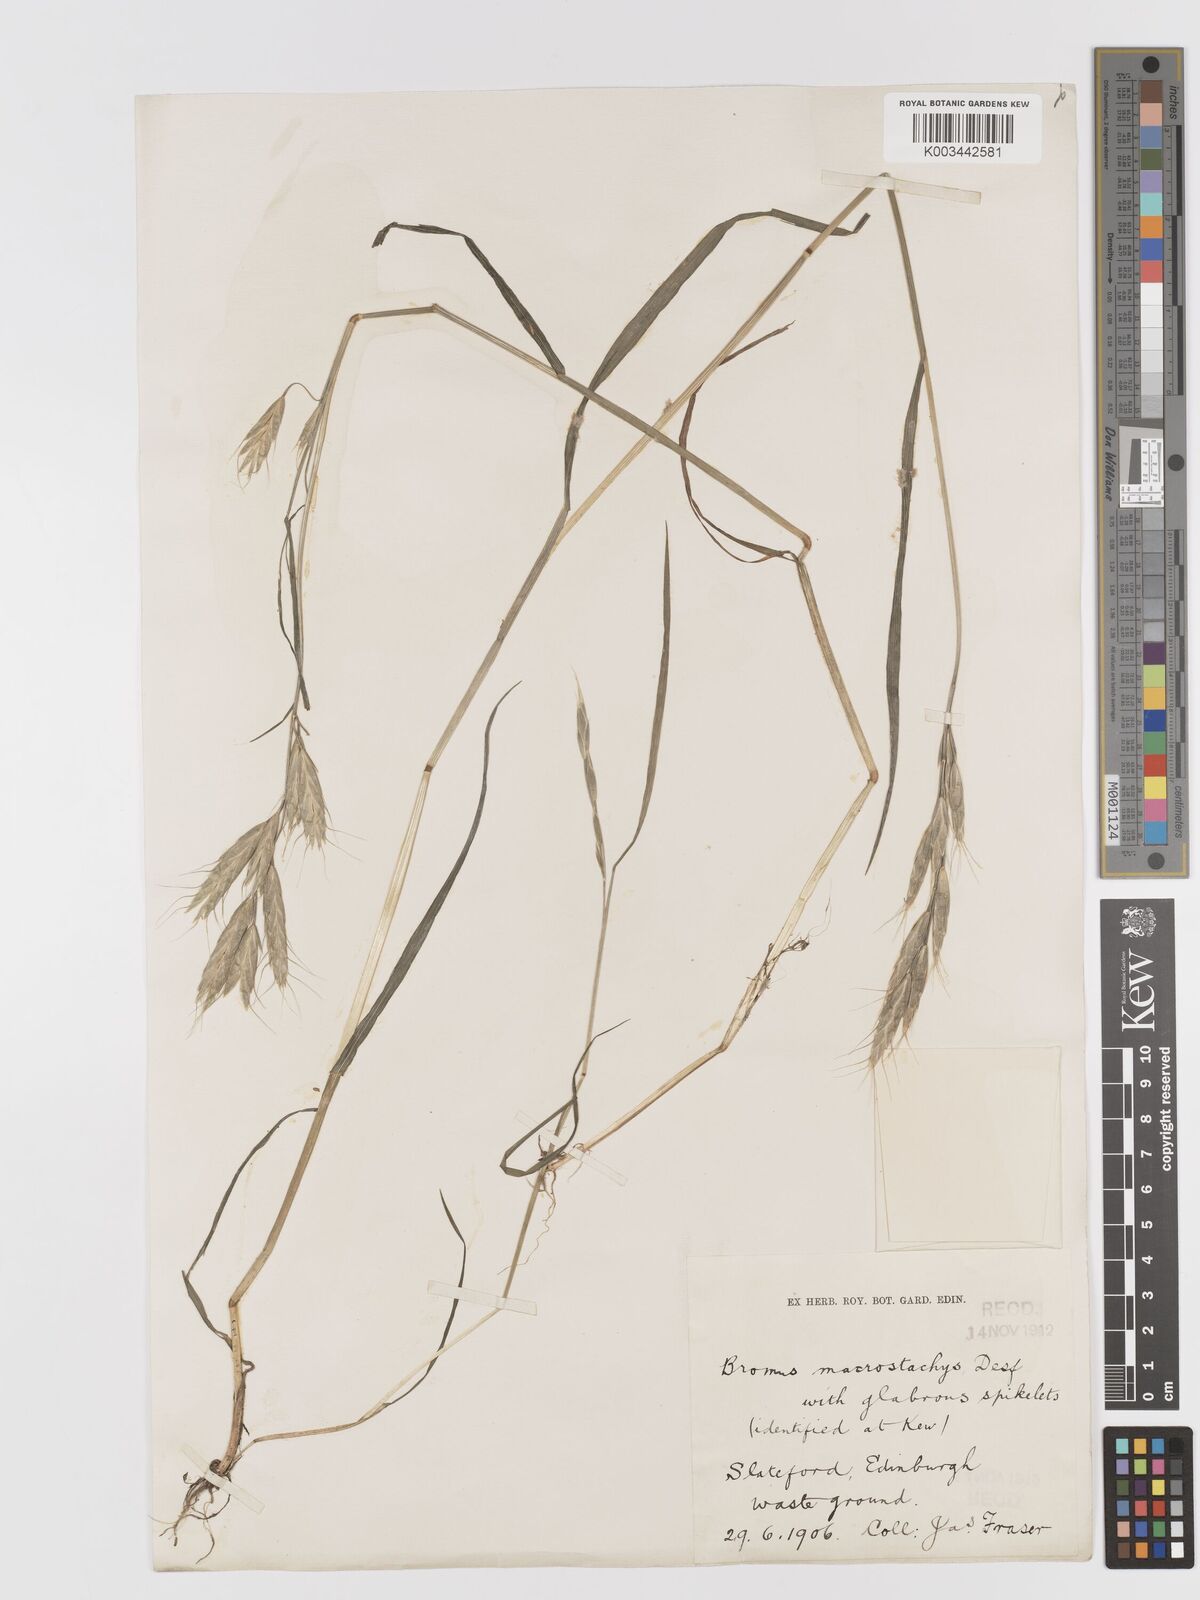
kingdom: Plantae
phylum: Tracheophyta
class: Liliopsida
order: Poales
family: Poaceae
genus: Bromus
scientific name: Bromus lanceolatus
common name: Mediterranean brome
